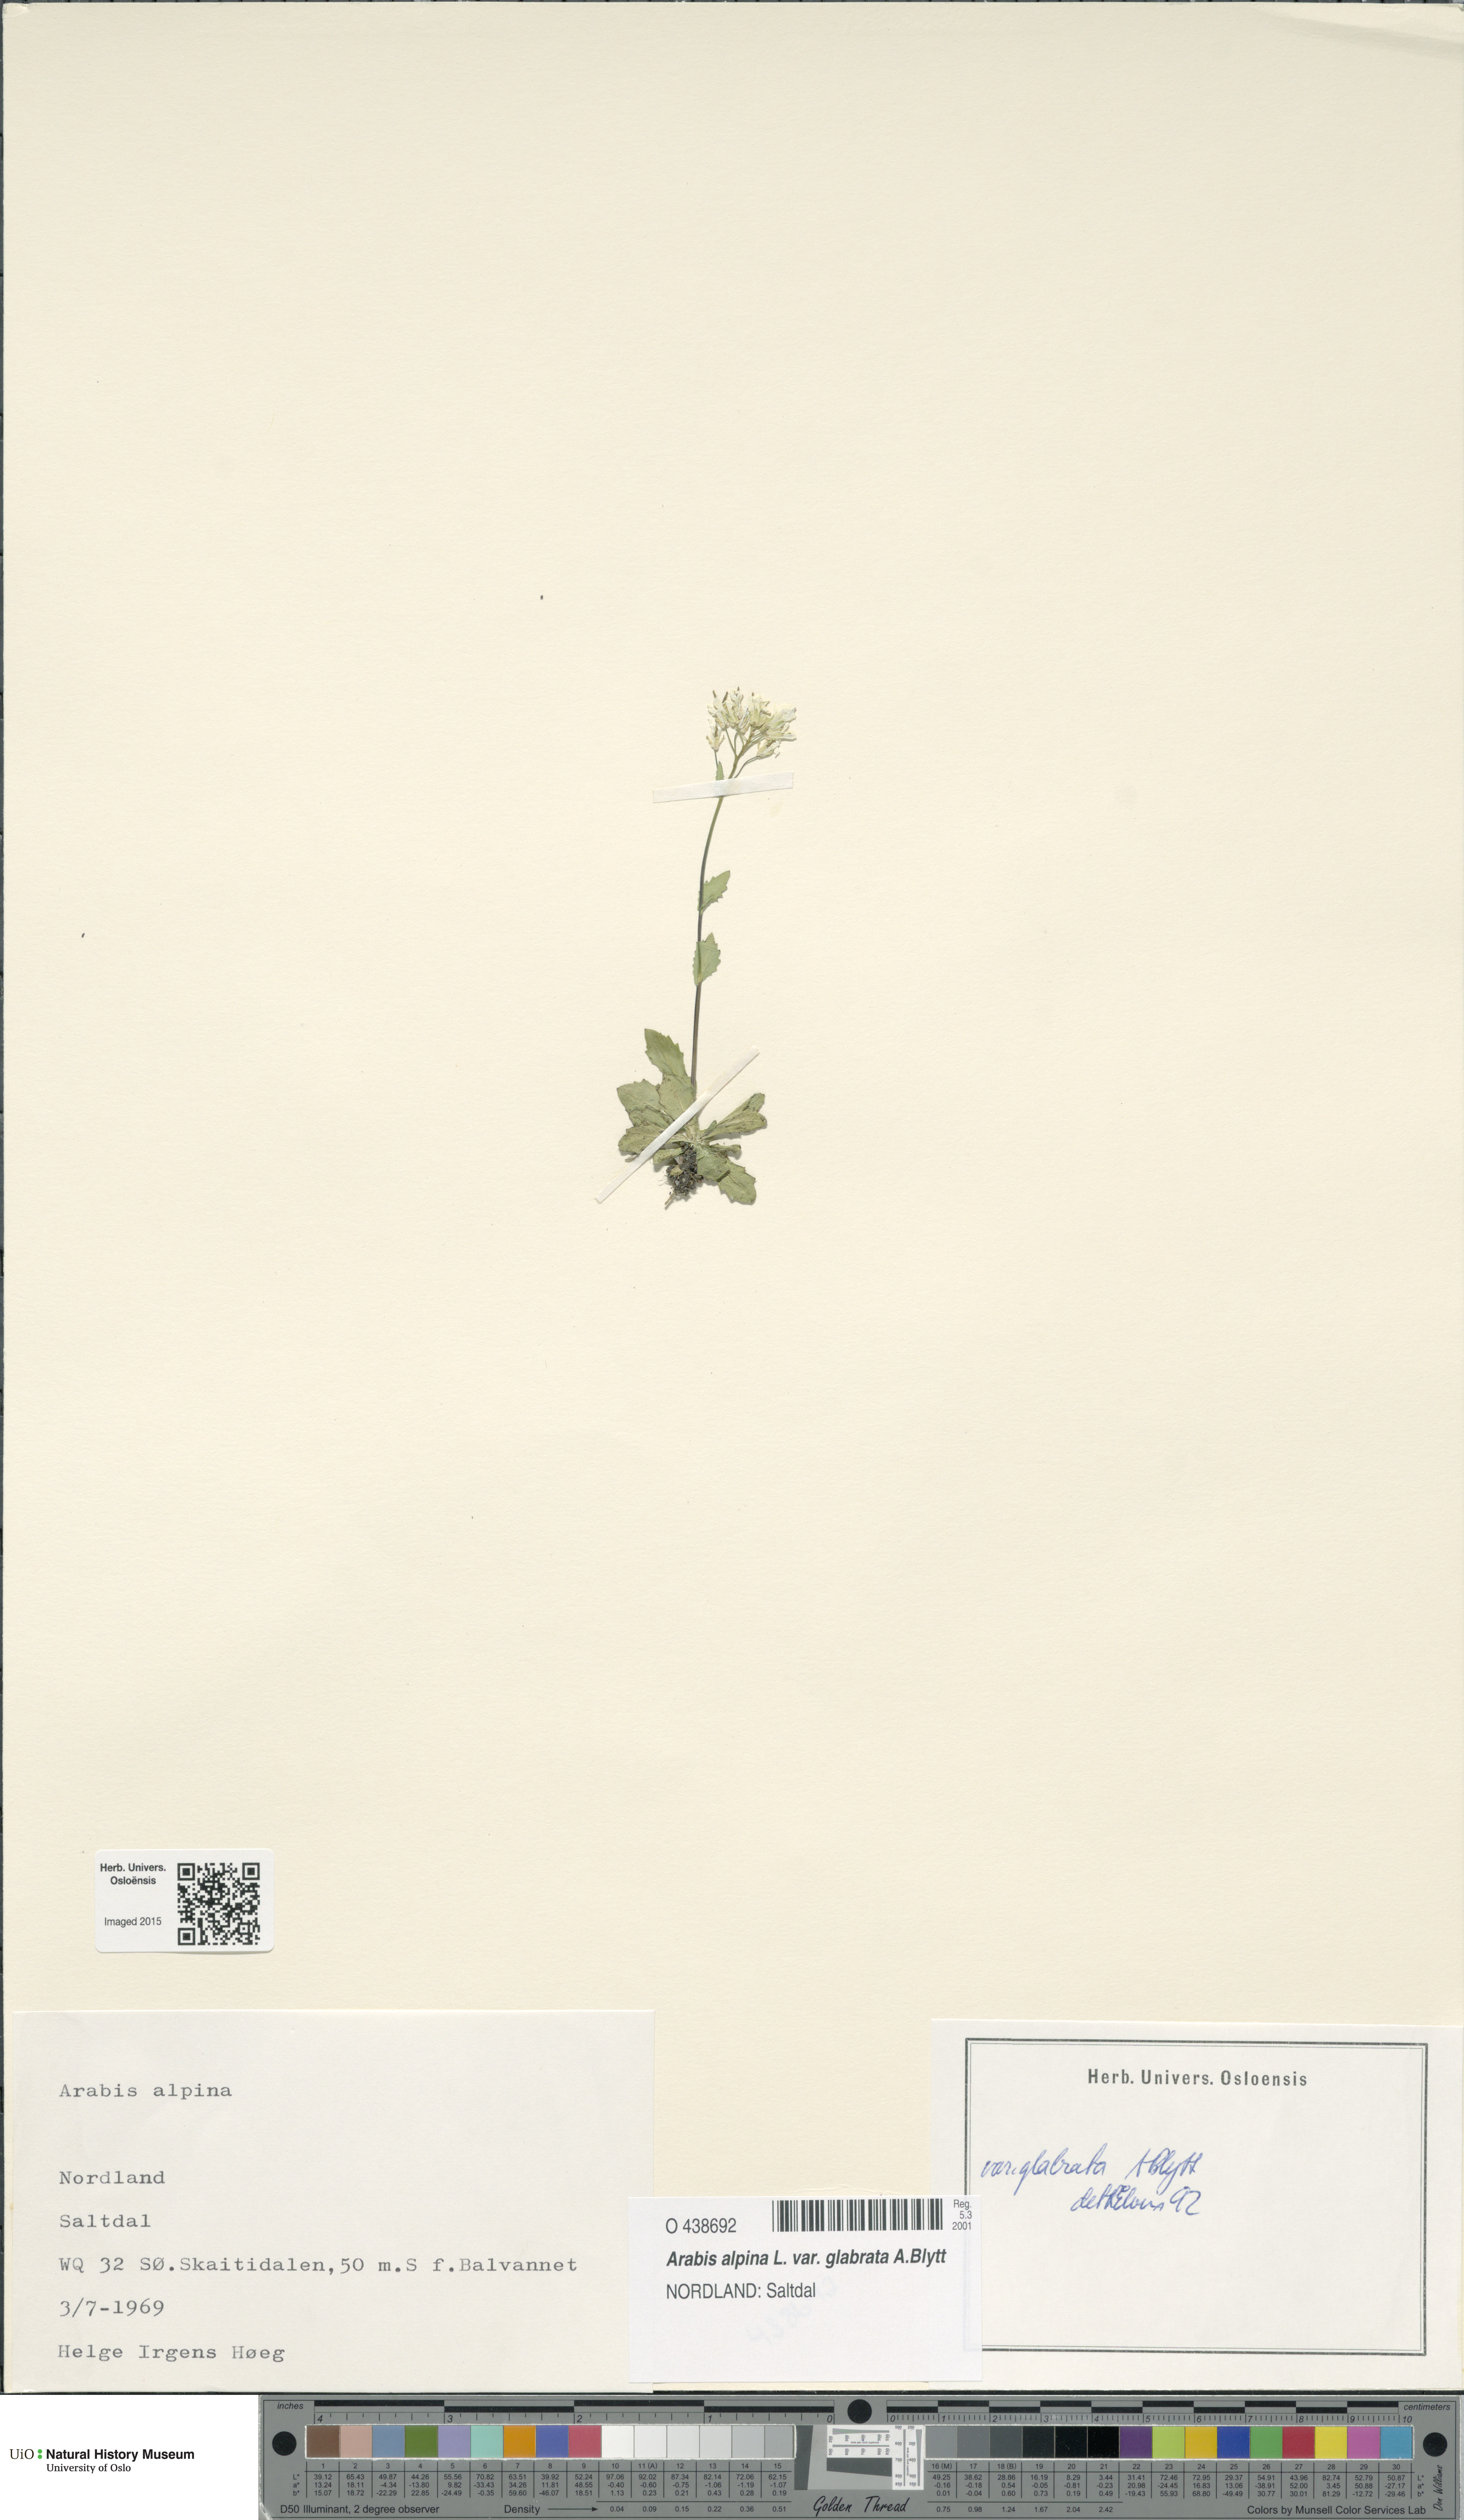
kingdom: Plantae
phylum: Tracheophyta
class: Magnoliopsida
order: Brassicales
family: Brassicaceae
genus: Arabis
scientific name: Arabis alpina
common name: Alpine rock-cress
